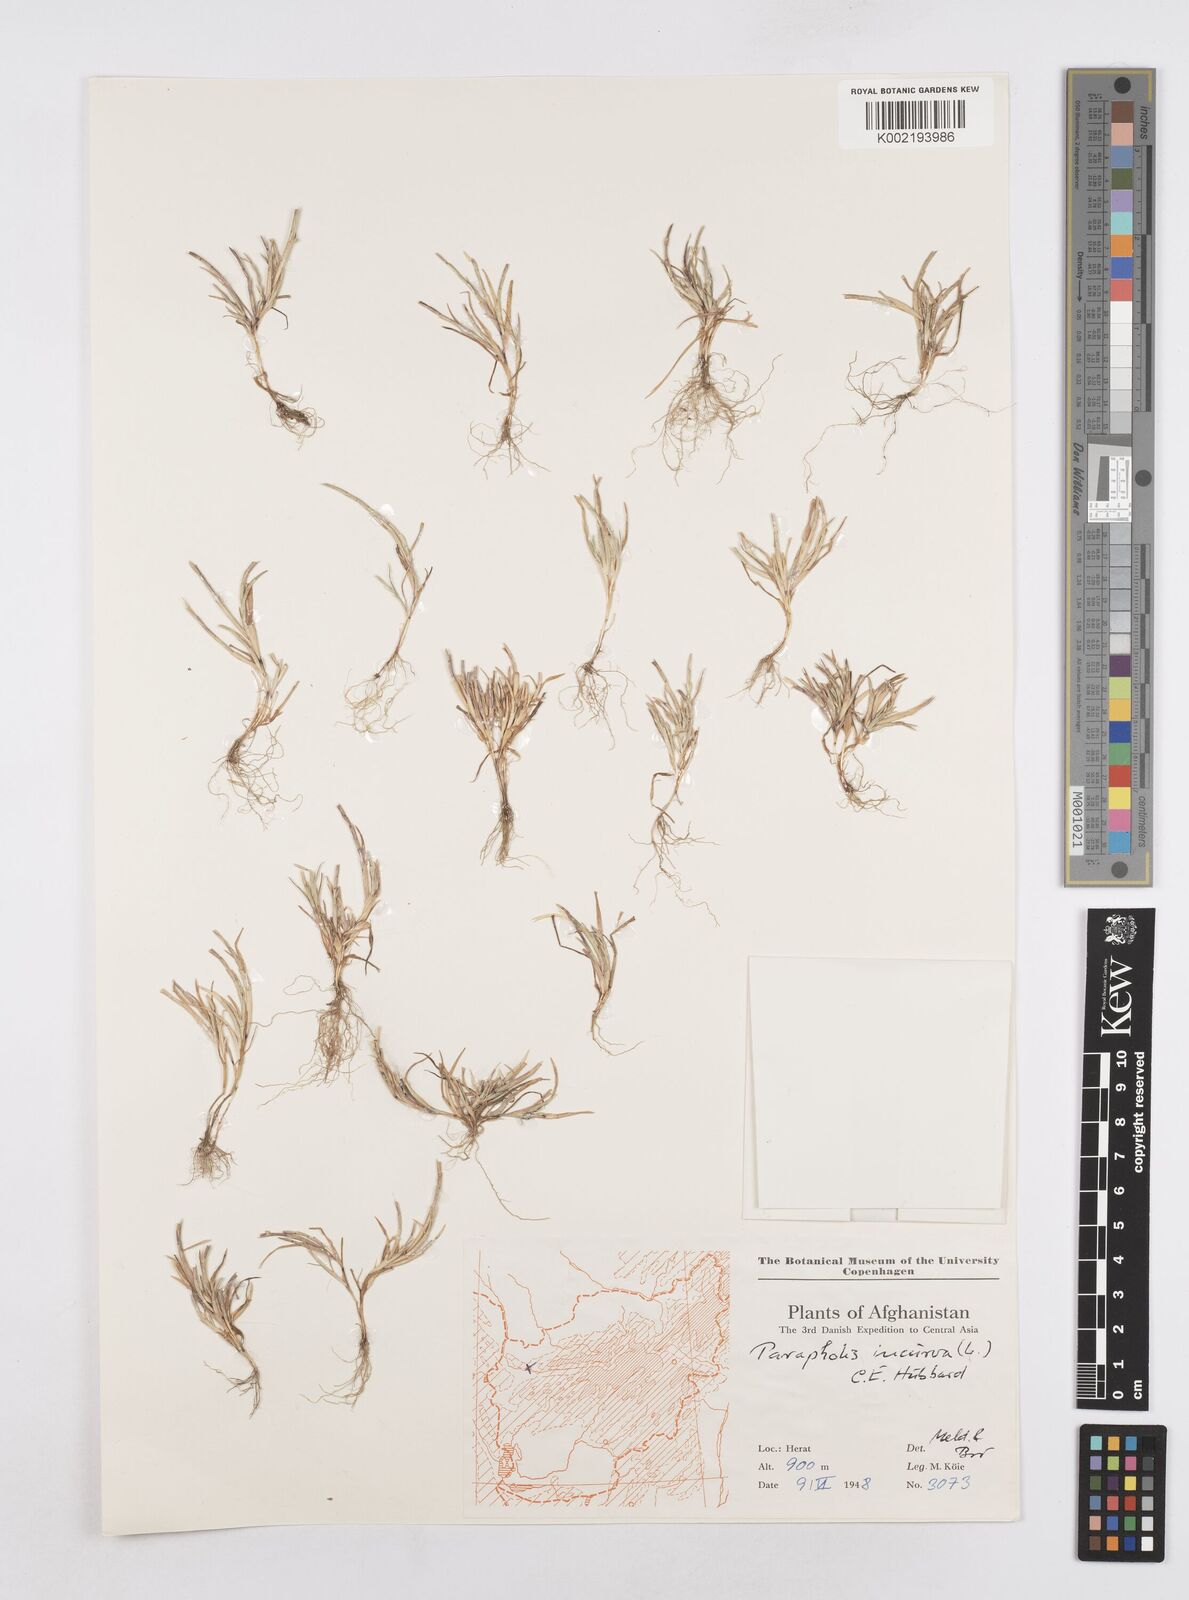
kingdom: Plantae
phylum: Tracheophyta
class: Liliopsida
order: Poales
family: Poaceae
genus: Parapholis
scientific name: Parapholis incurva
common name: Curved sicklegrass
